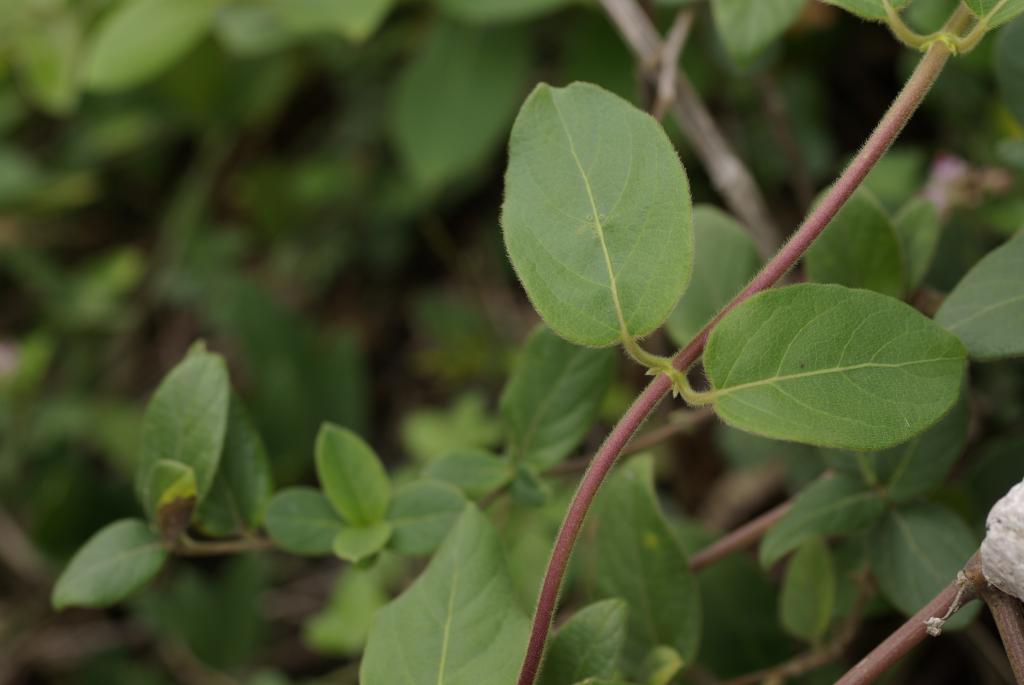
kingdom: Plantae
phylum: Tracheophyta
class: Magnoliopsida
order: Dipsacales
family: Caprifoliaceae
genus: Lonicera
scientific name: Lonicera japonica
